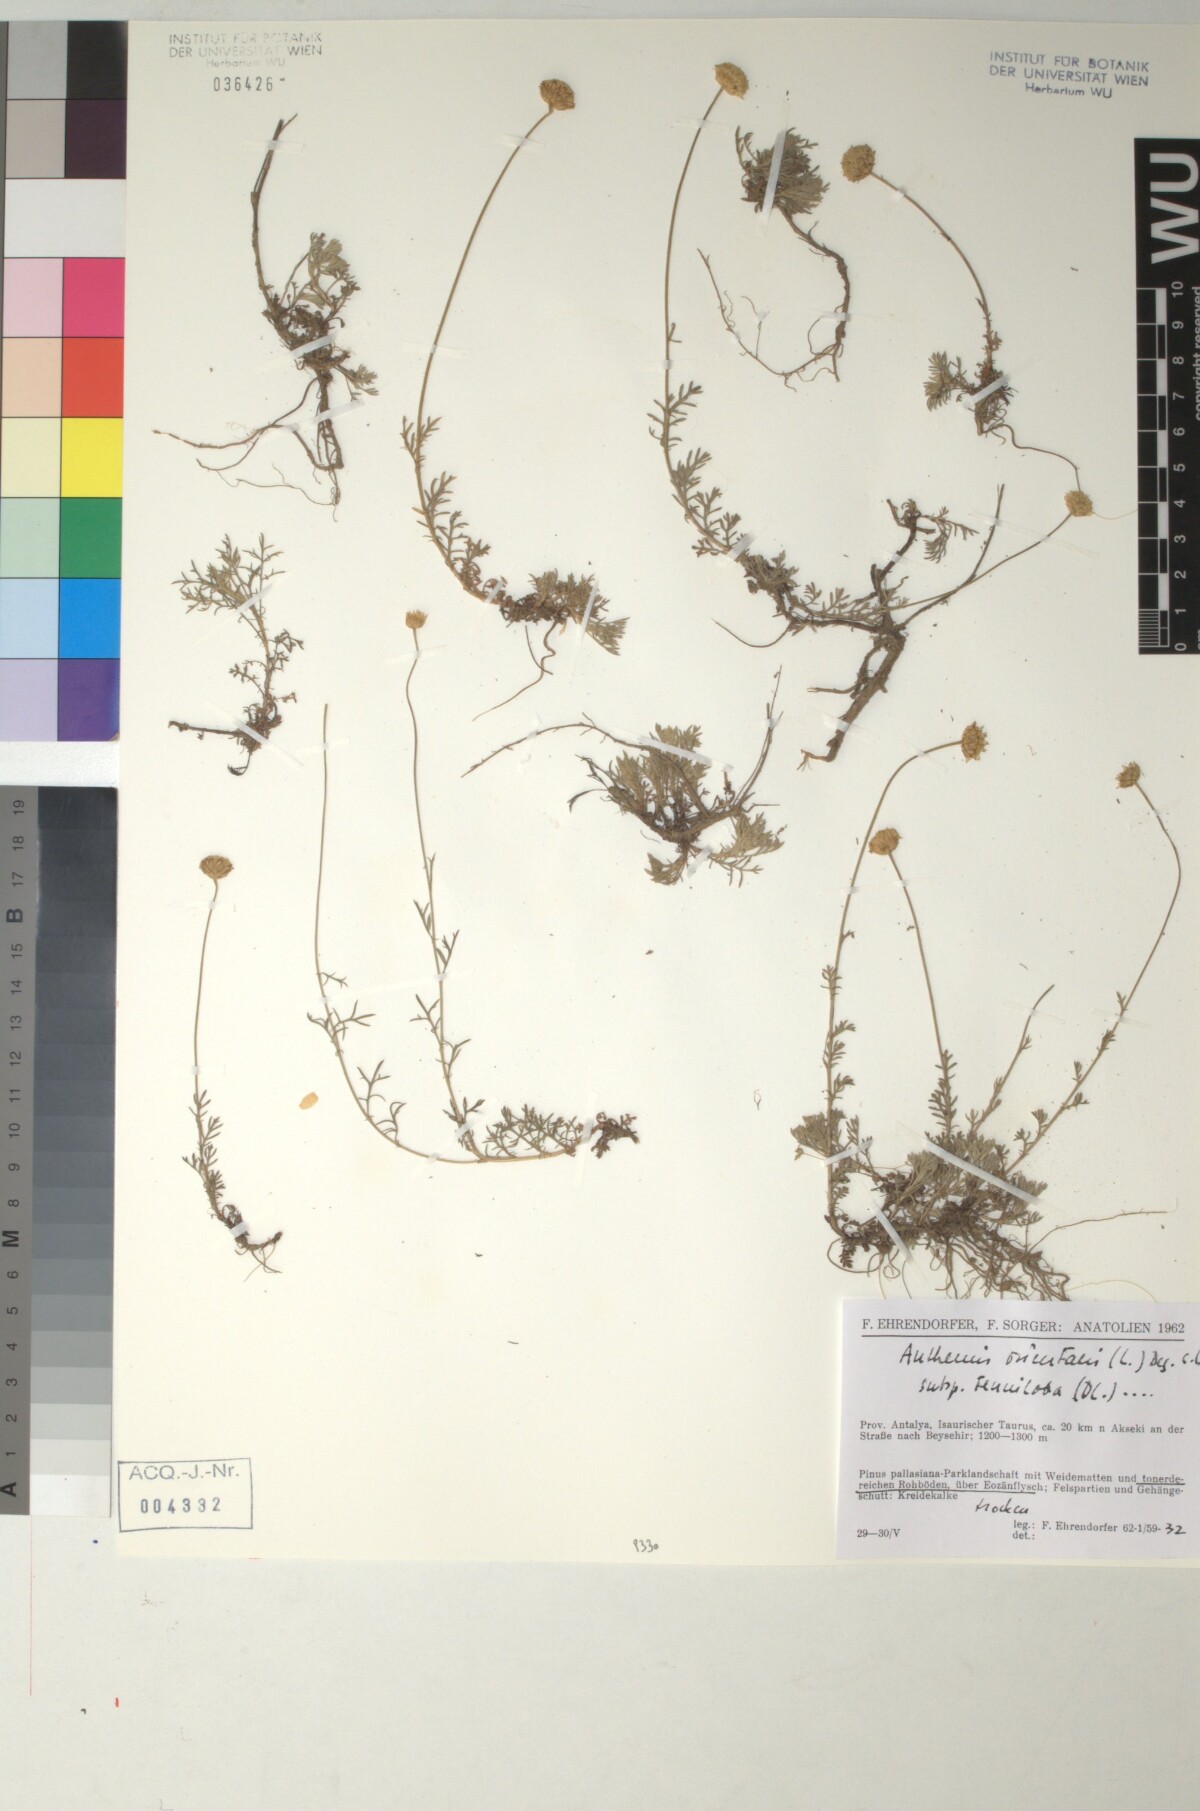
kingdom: Plantae
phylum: Tracheophyta
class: Magnoliopsida
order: Asterales
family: Asteraceae
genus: Anthemis
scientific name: Anthemis orientalis
